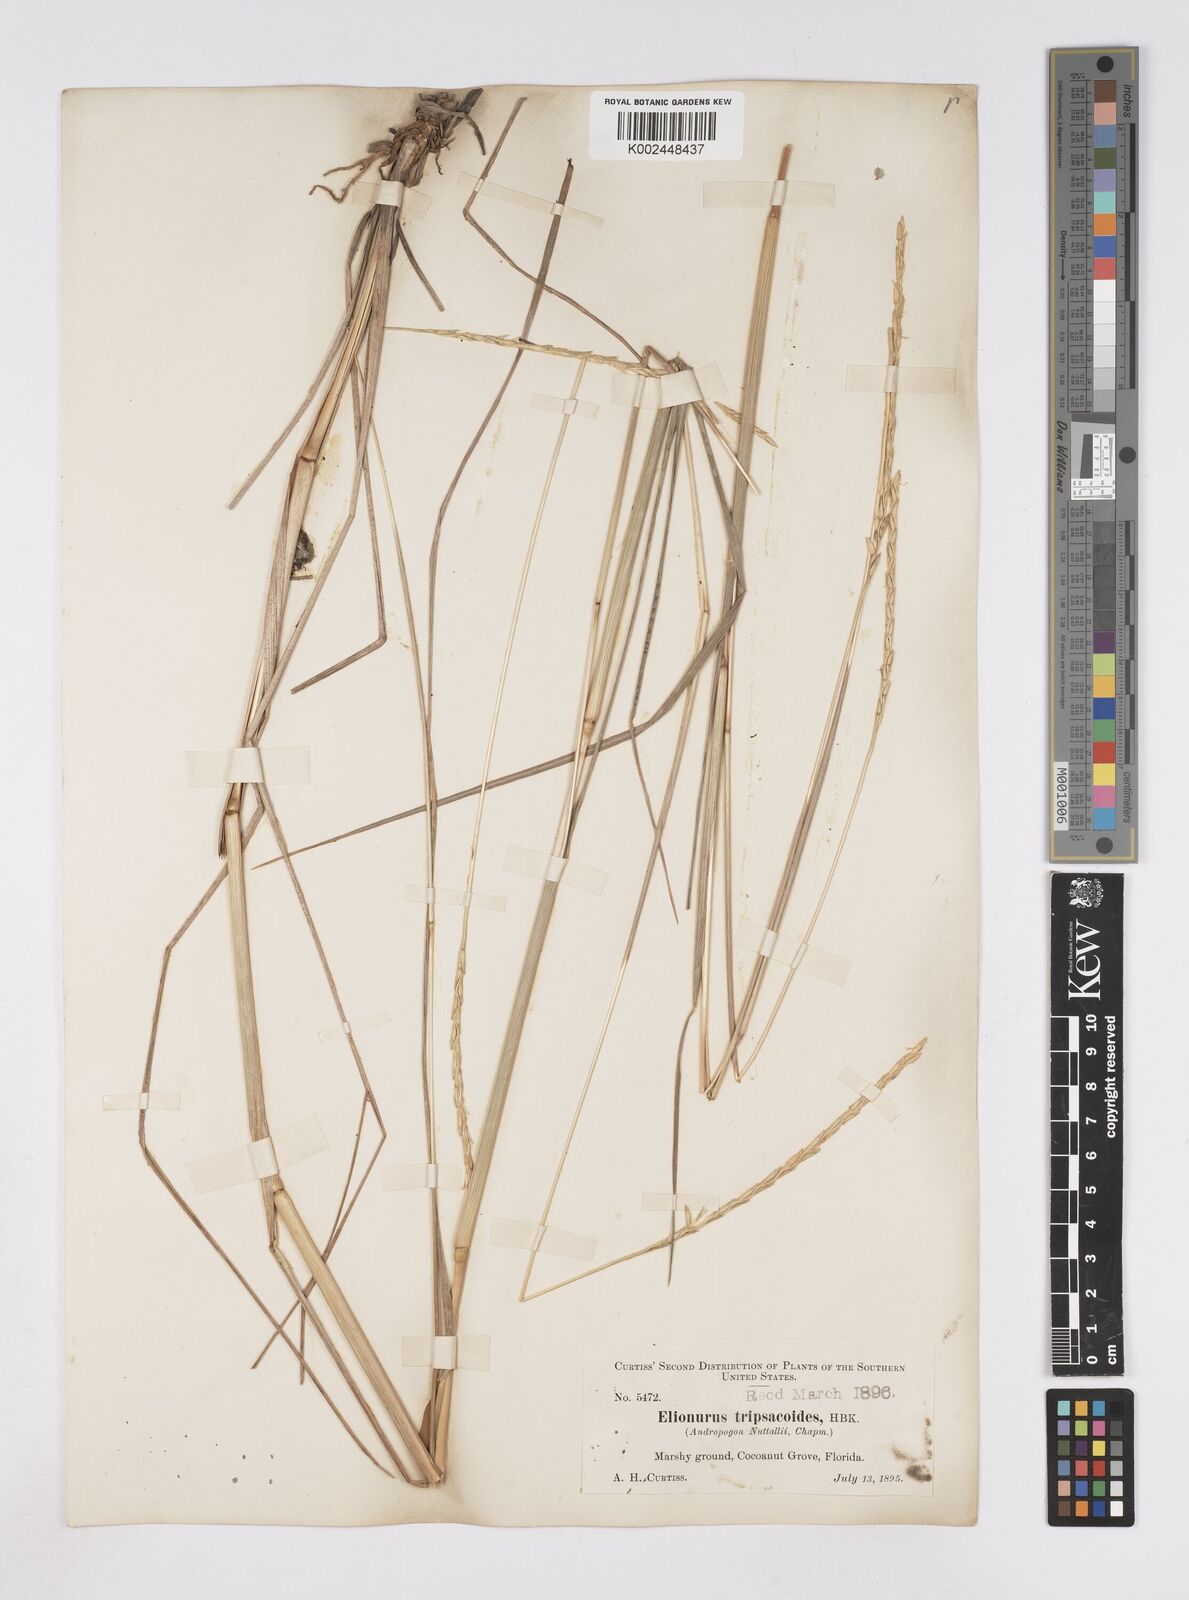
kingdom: Plantae
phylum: Tracheophyta
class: Liliopsida
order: Poales
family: Poaceae
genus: Elionurus
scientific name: Elionurus tripsacoides
